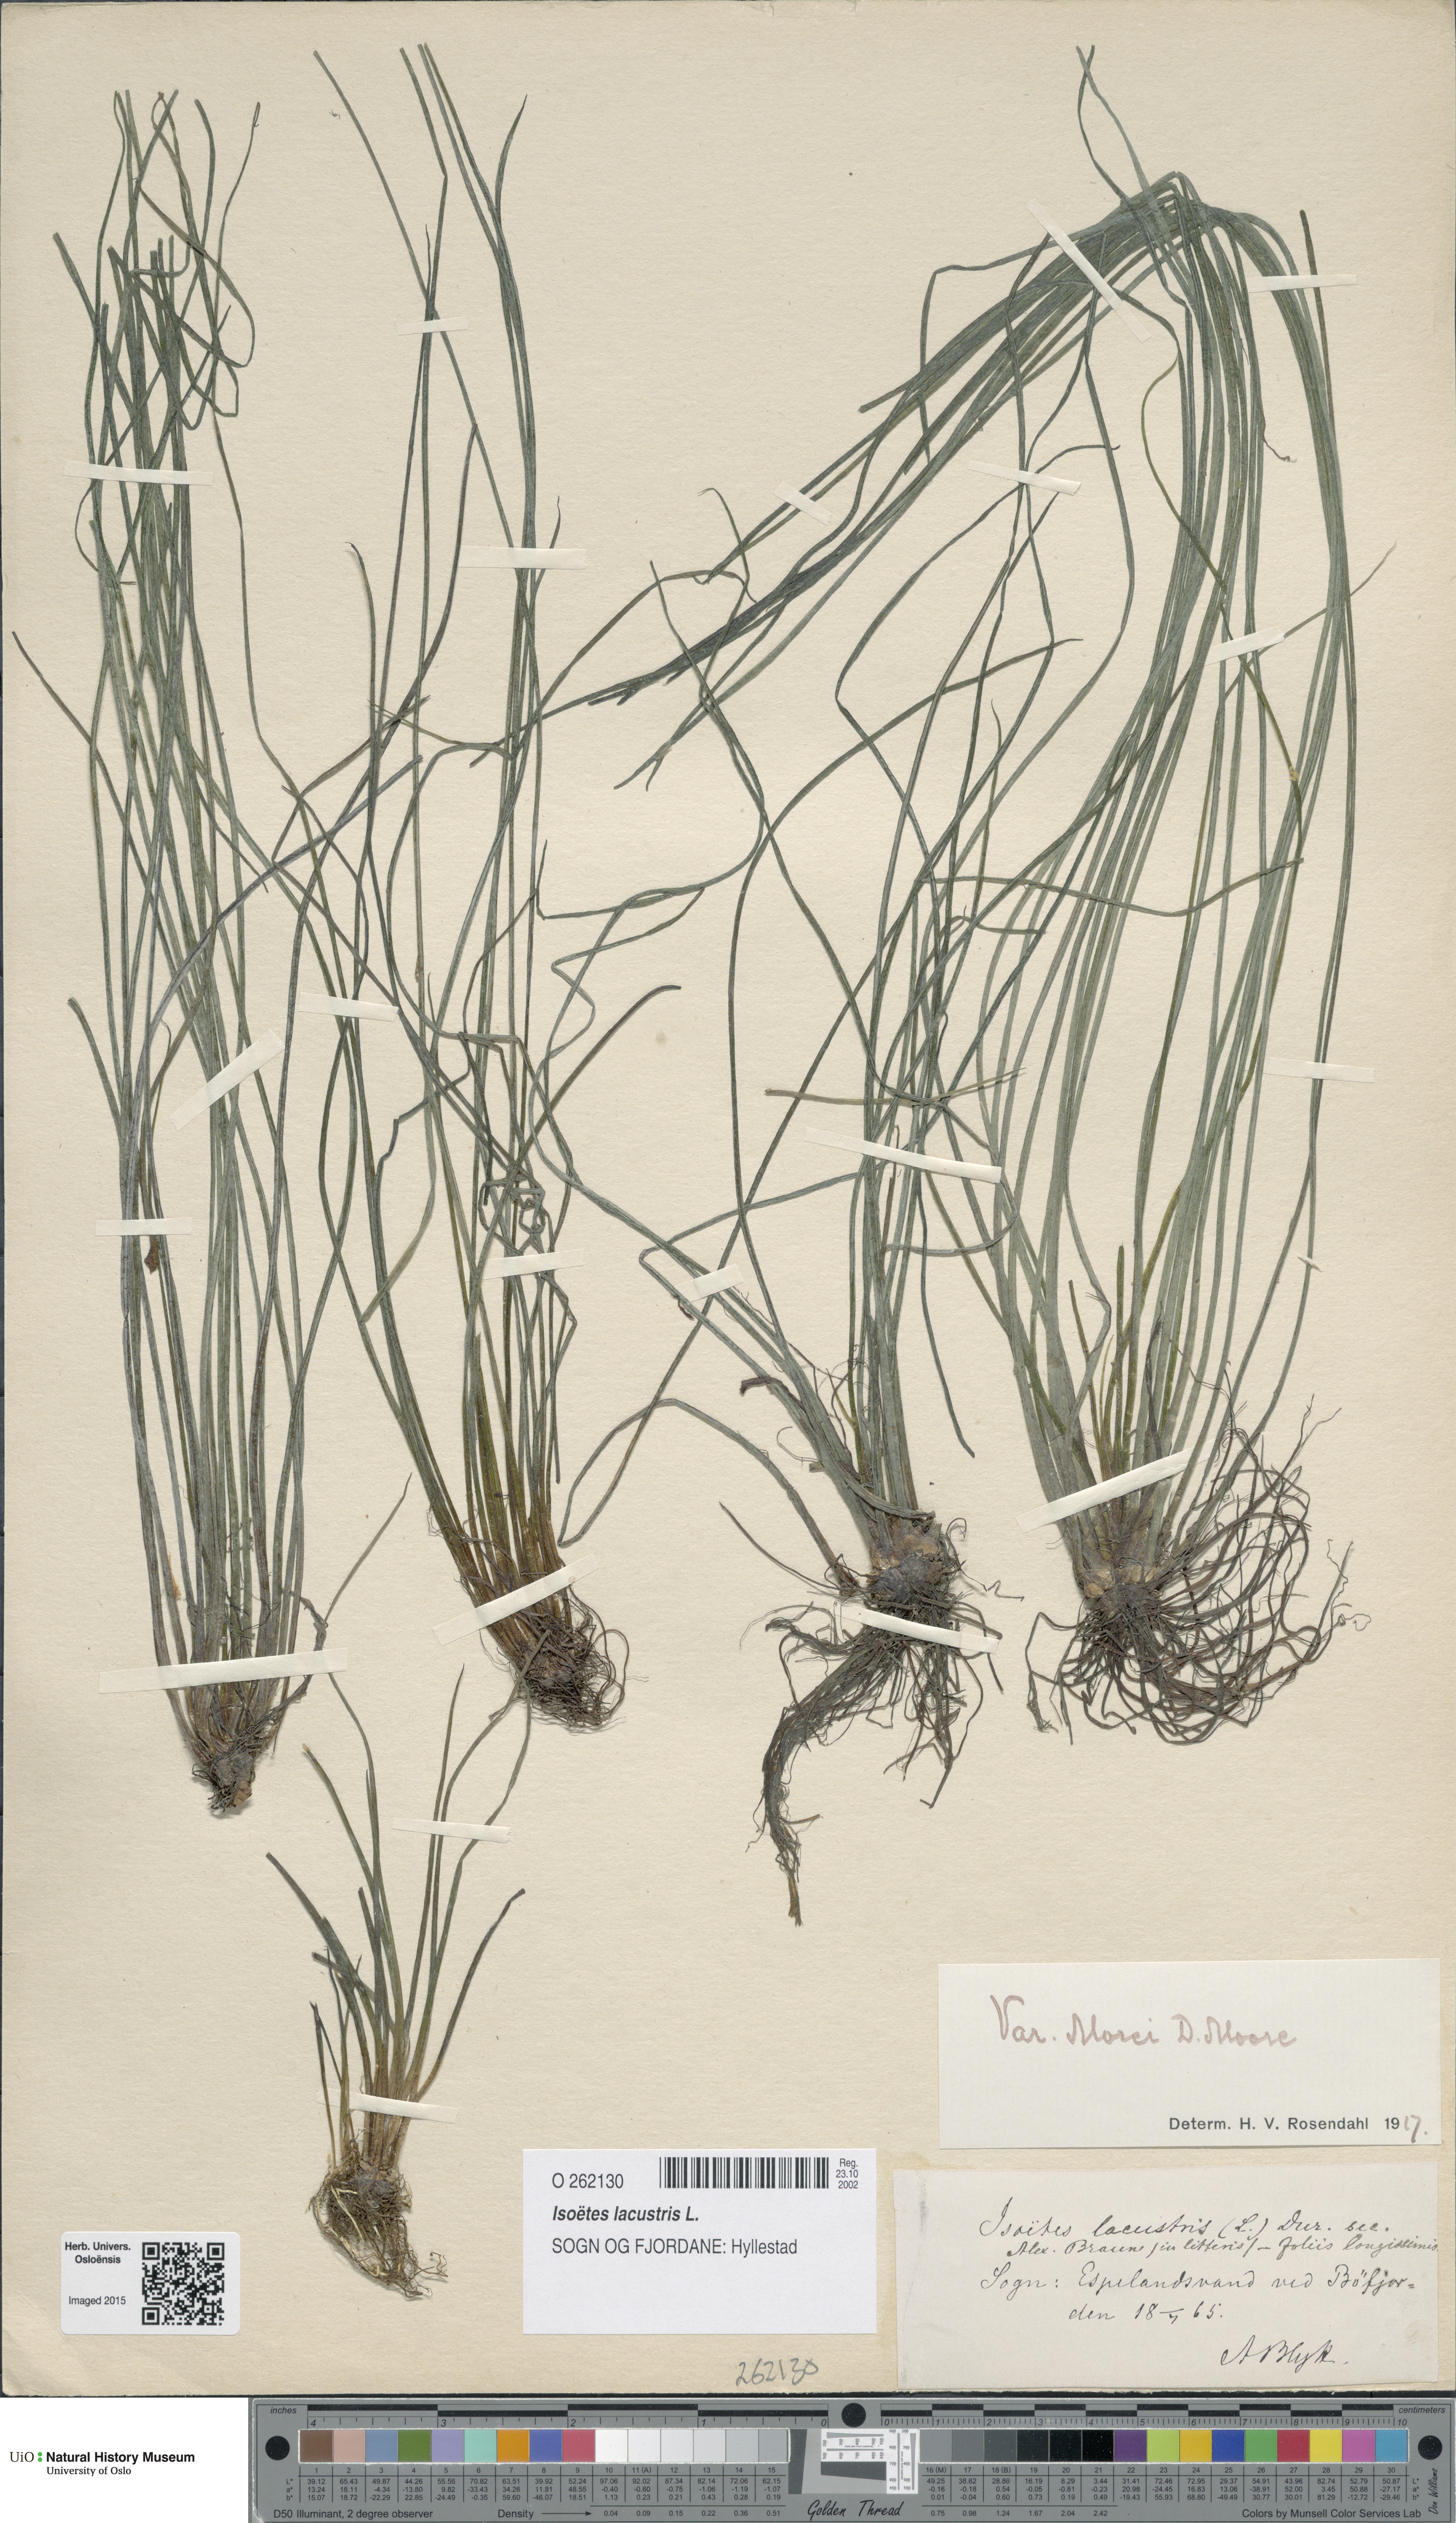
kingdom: Plantae
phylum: Tracheophyta
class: Lycopodiopsida
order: Isoetales
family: Isoetaceae
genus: Isoetes
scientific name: Isoetes lacustris
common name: Common quillwort
